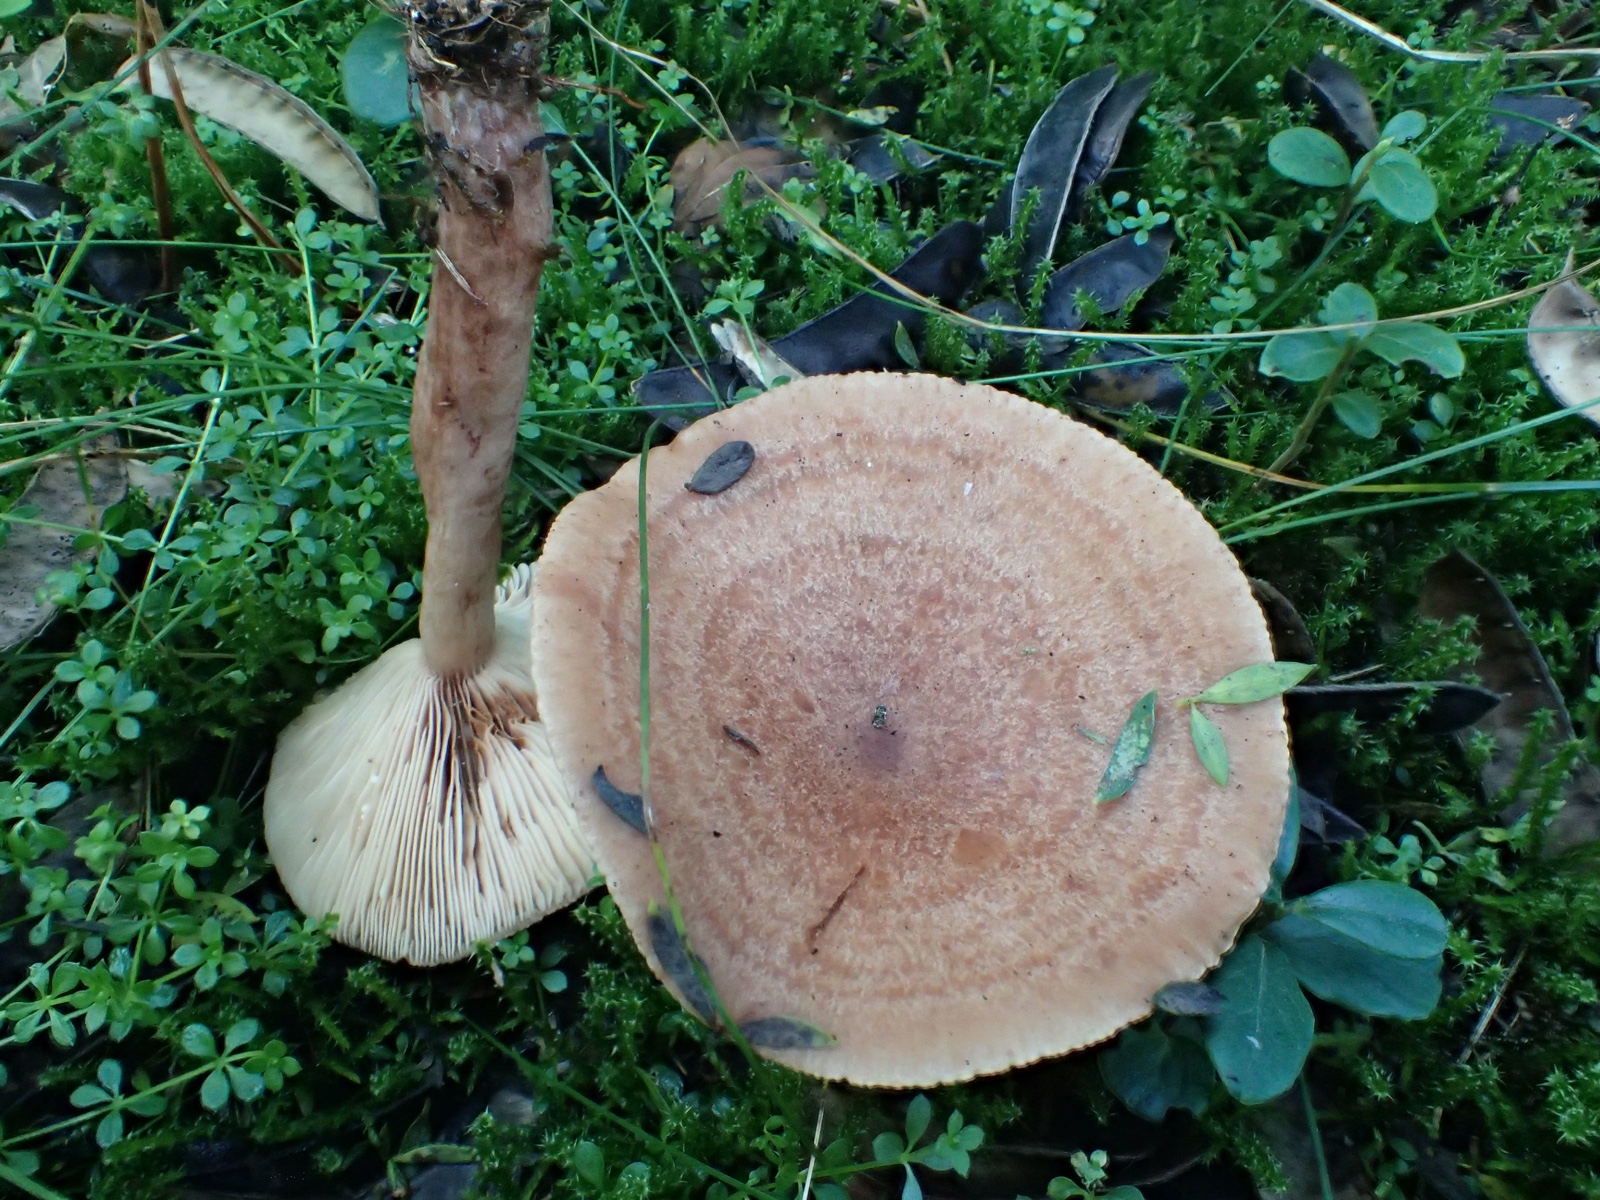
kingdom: Fungi
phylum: Basidiomycota
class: Agaricomycetes
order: Russulales
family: Russulaceae
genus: Lactarius
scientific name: Lactarius quietus
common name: ege-mælkehat
